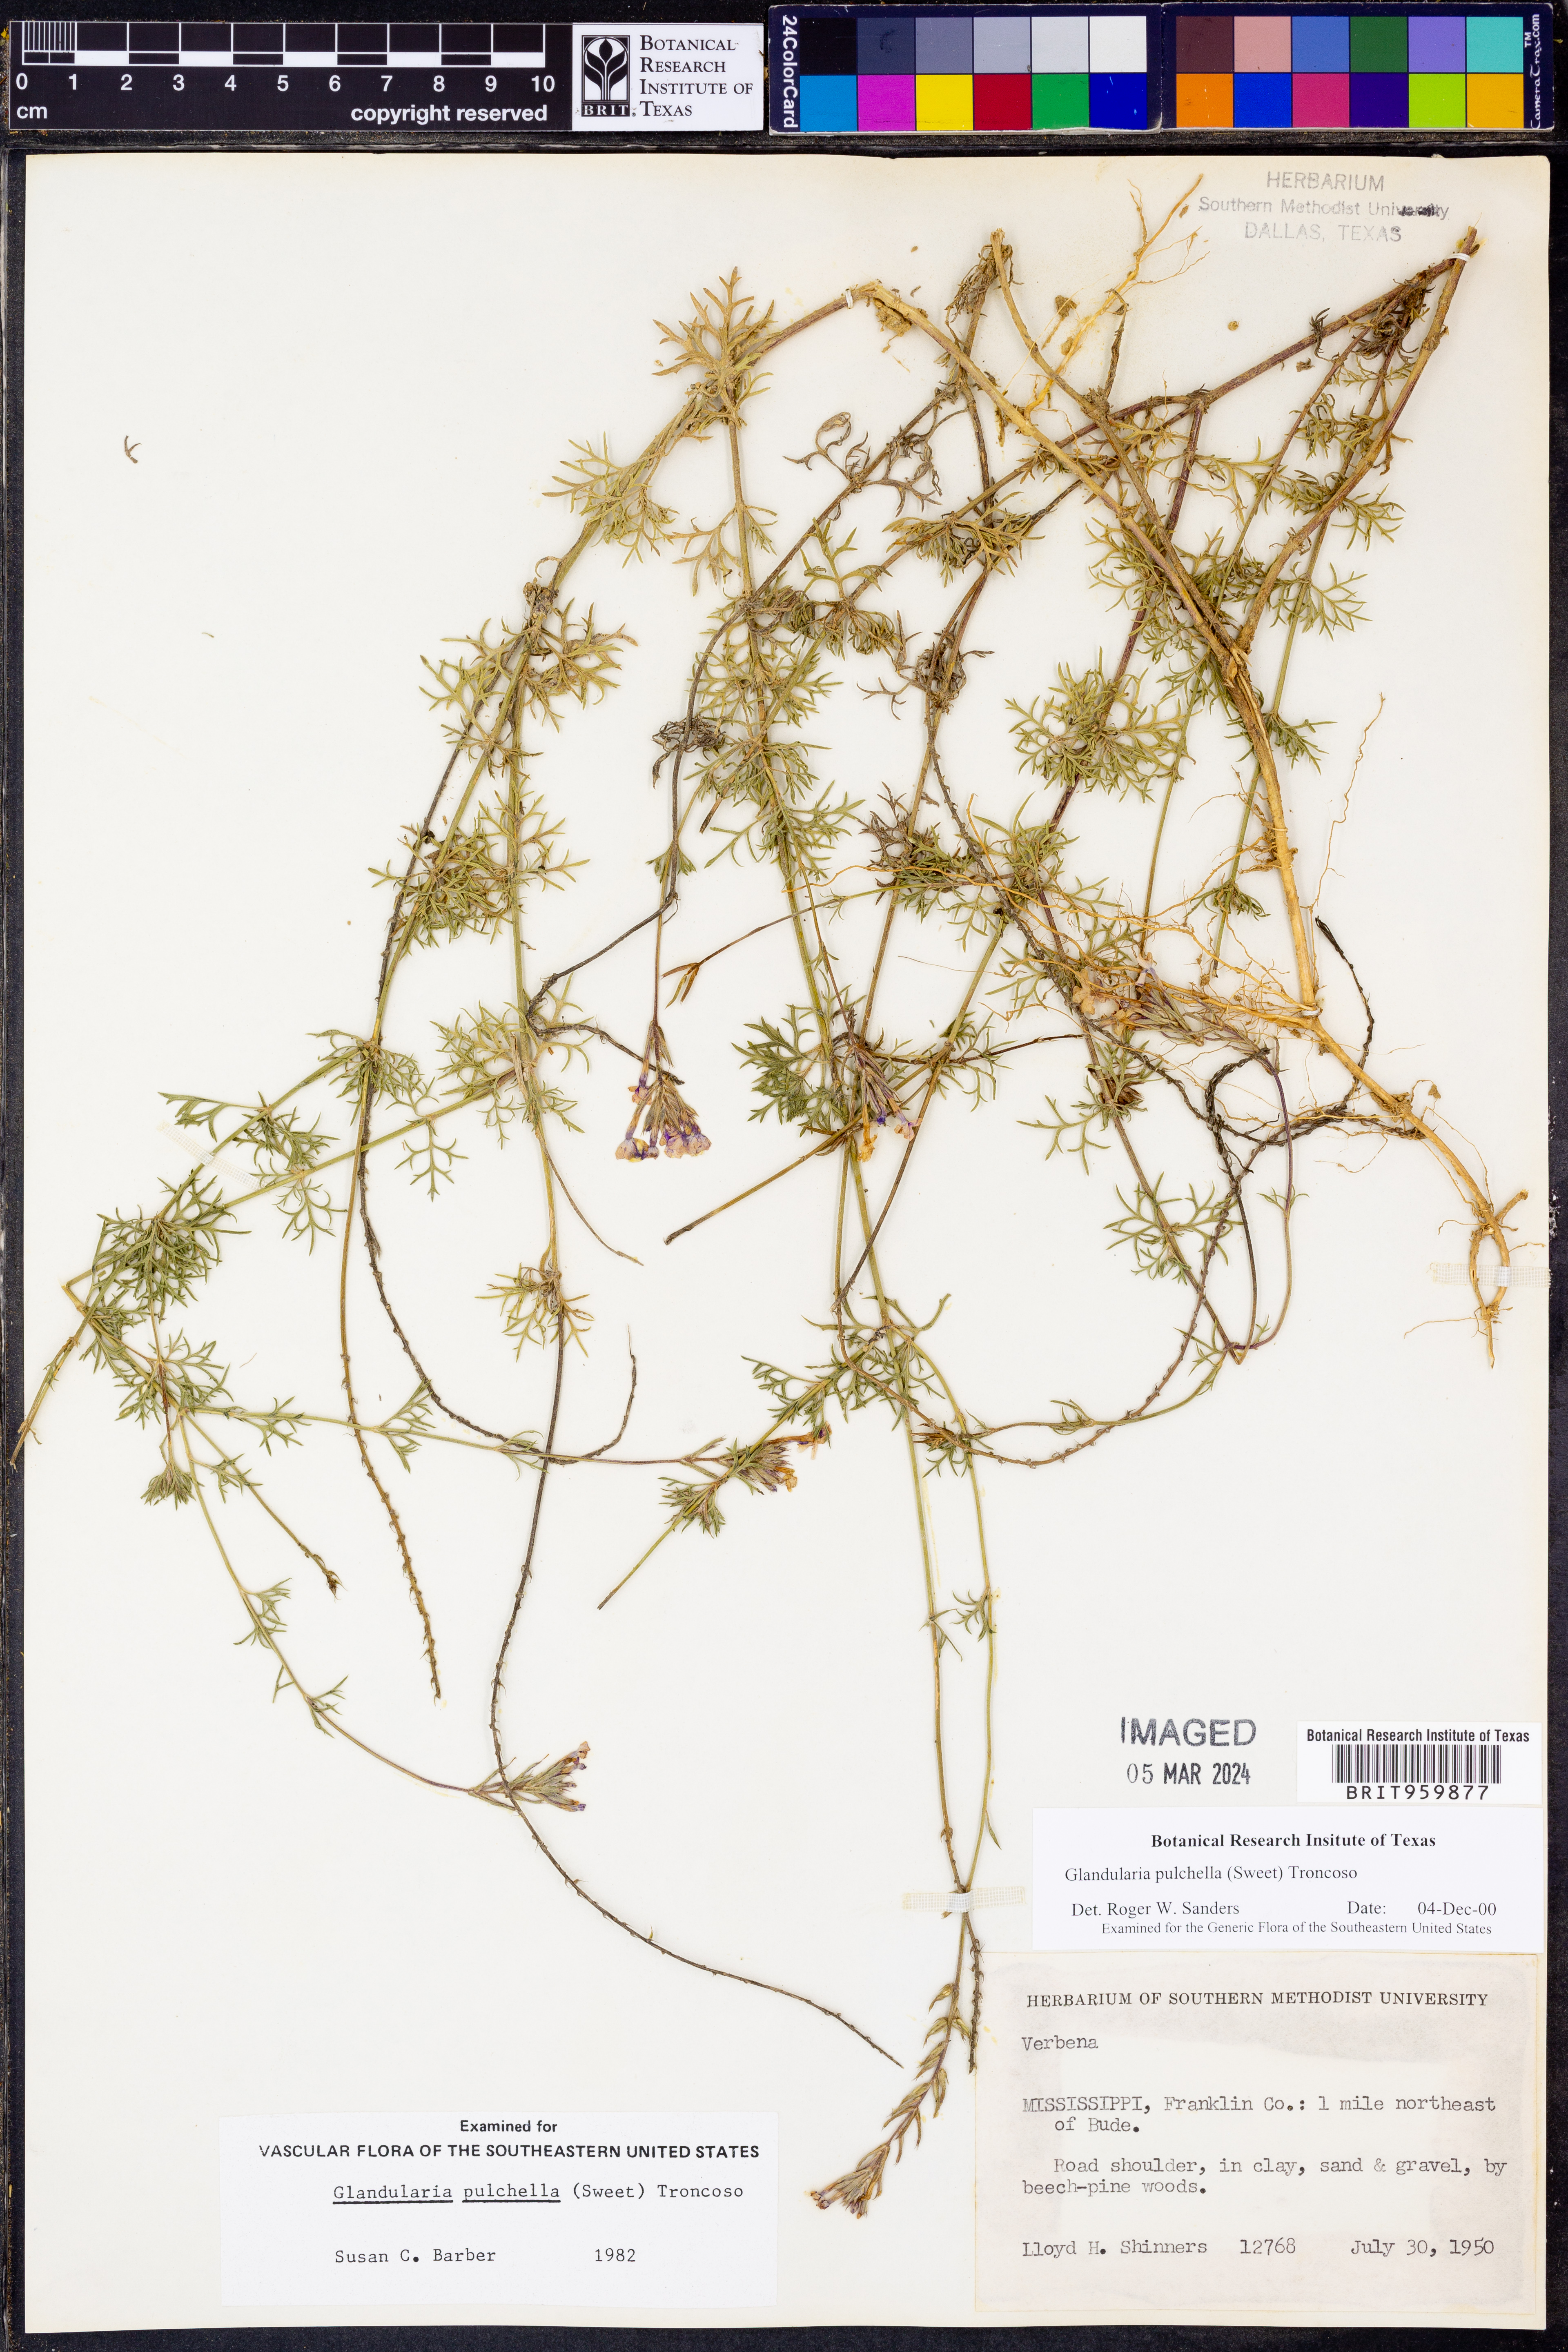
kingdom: Plantae
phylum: Tracheophyta
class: Magnoliopsida
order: Lamiales
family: Verbenaceae
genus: Verbena
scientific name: Verbena tenera
